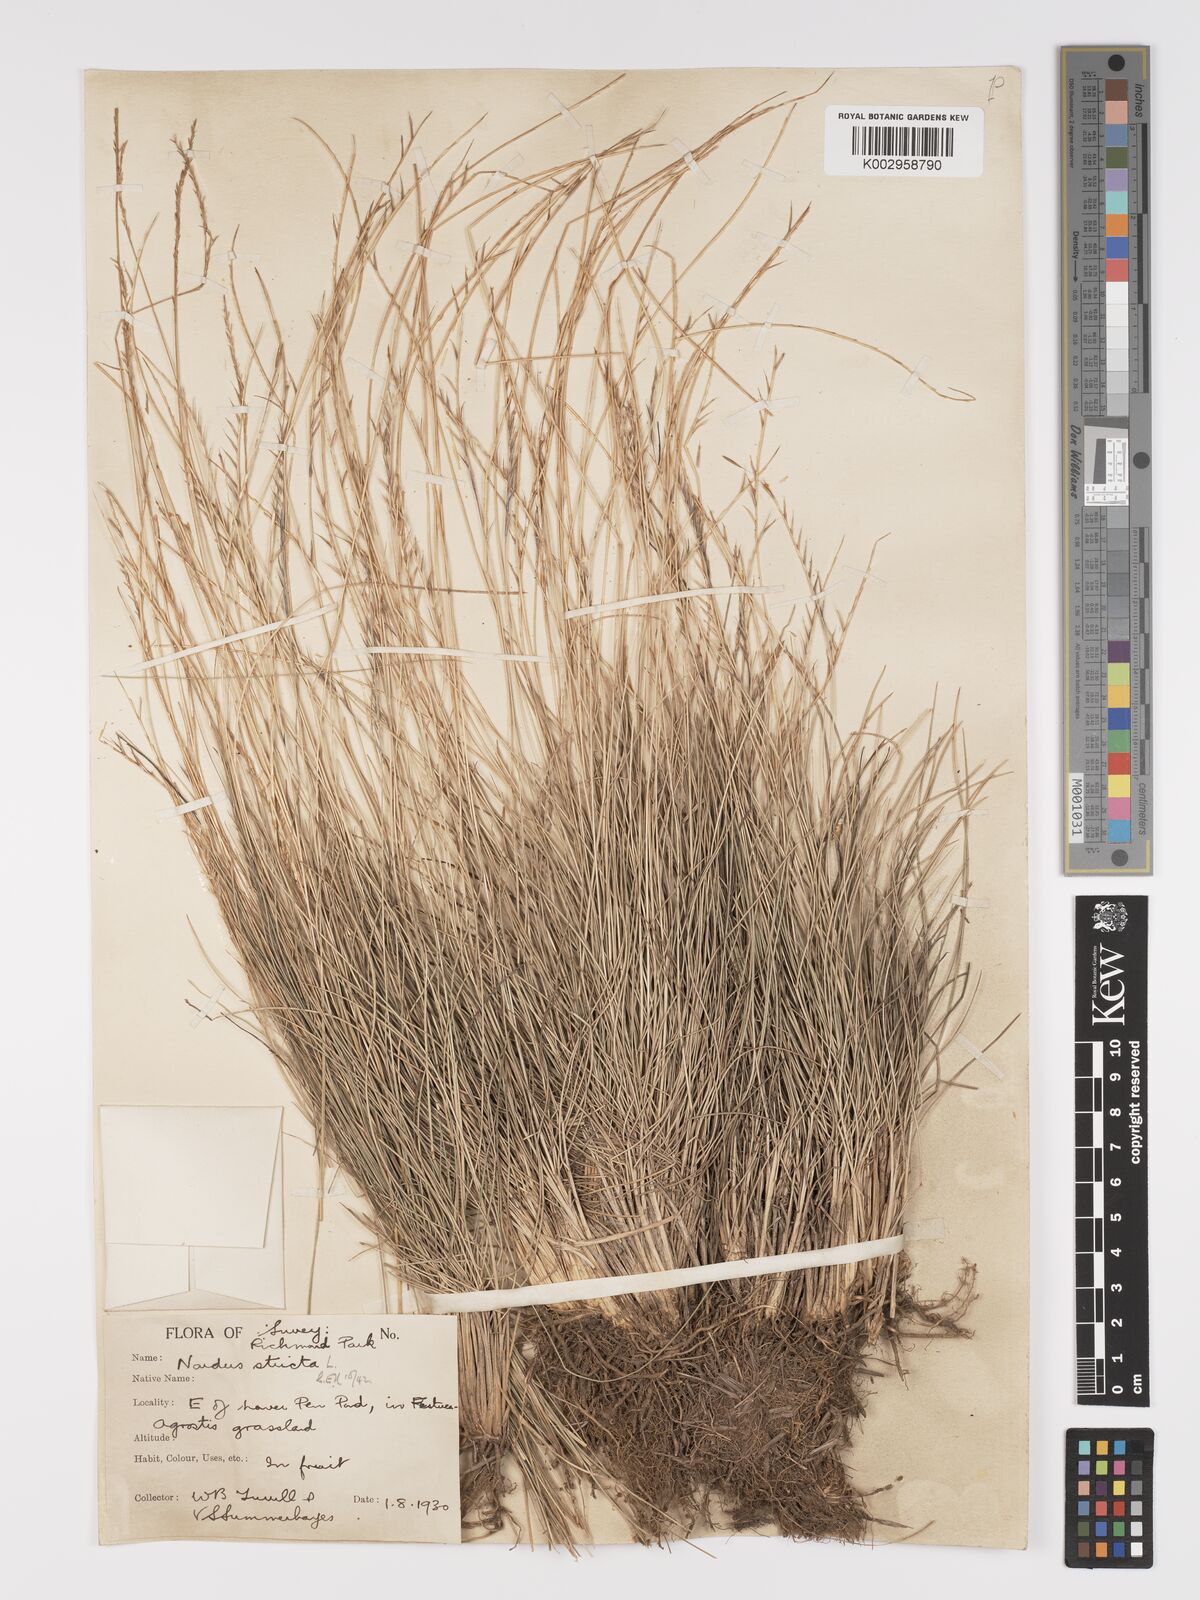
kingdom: Plantae
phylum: Tracheophyta
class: Liliopsida
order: Poales
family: Poaceae
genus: Nardus
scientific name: Nardus stricta
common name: Mat-grass
